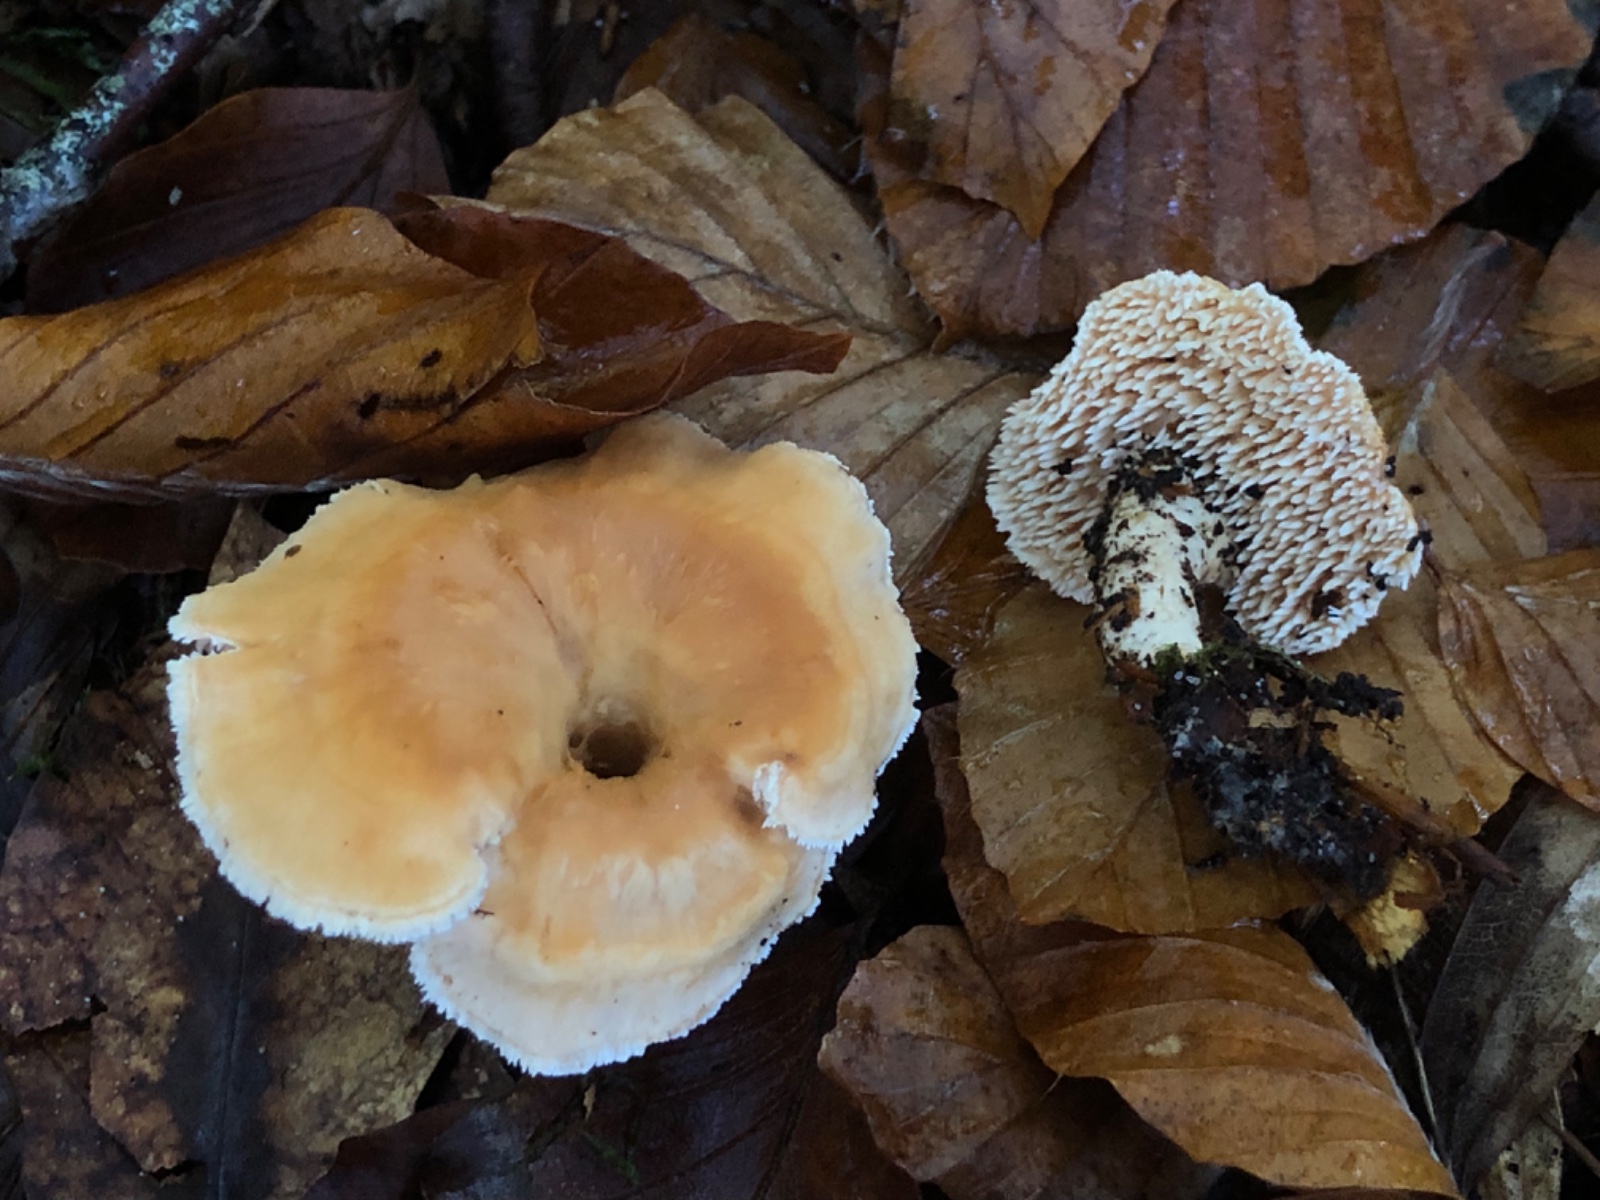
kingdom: Fungi
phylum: Basidiomycota
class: Agaricomycetes
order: Cantharellales
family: Hydnaceae
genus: Hydnum
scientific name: Hydnum umbilicatum
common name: navle-pigsvamp
